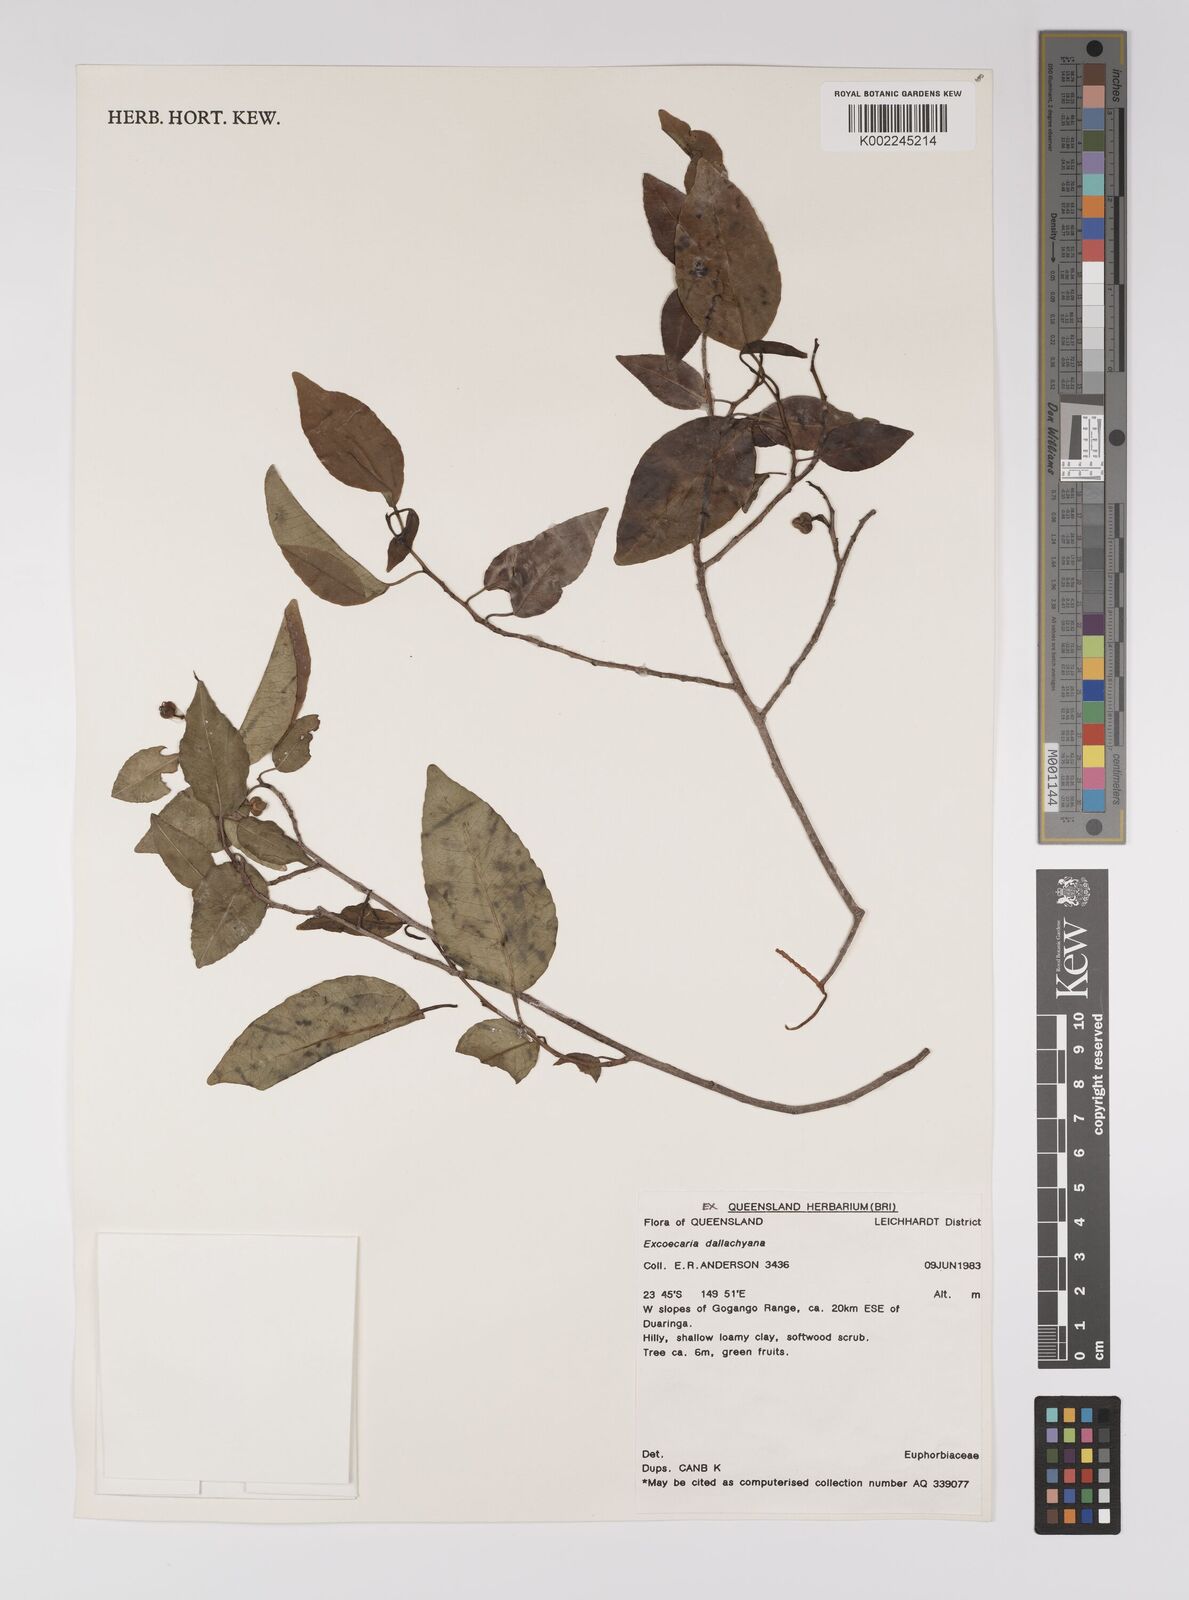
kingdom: Plantae
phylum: Tracheophyta
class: Magnoliopsida
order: Malpighiales
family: Euphorbiaceae
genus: Excoecaria
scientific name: Excoecaria dallachyana
